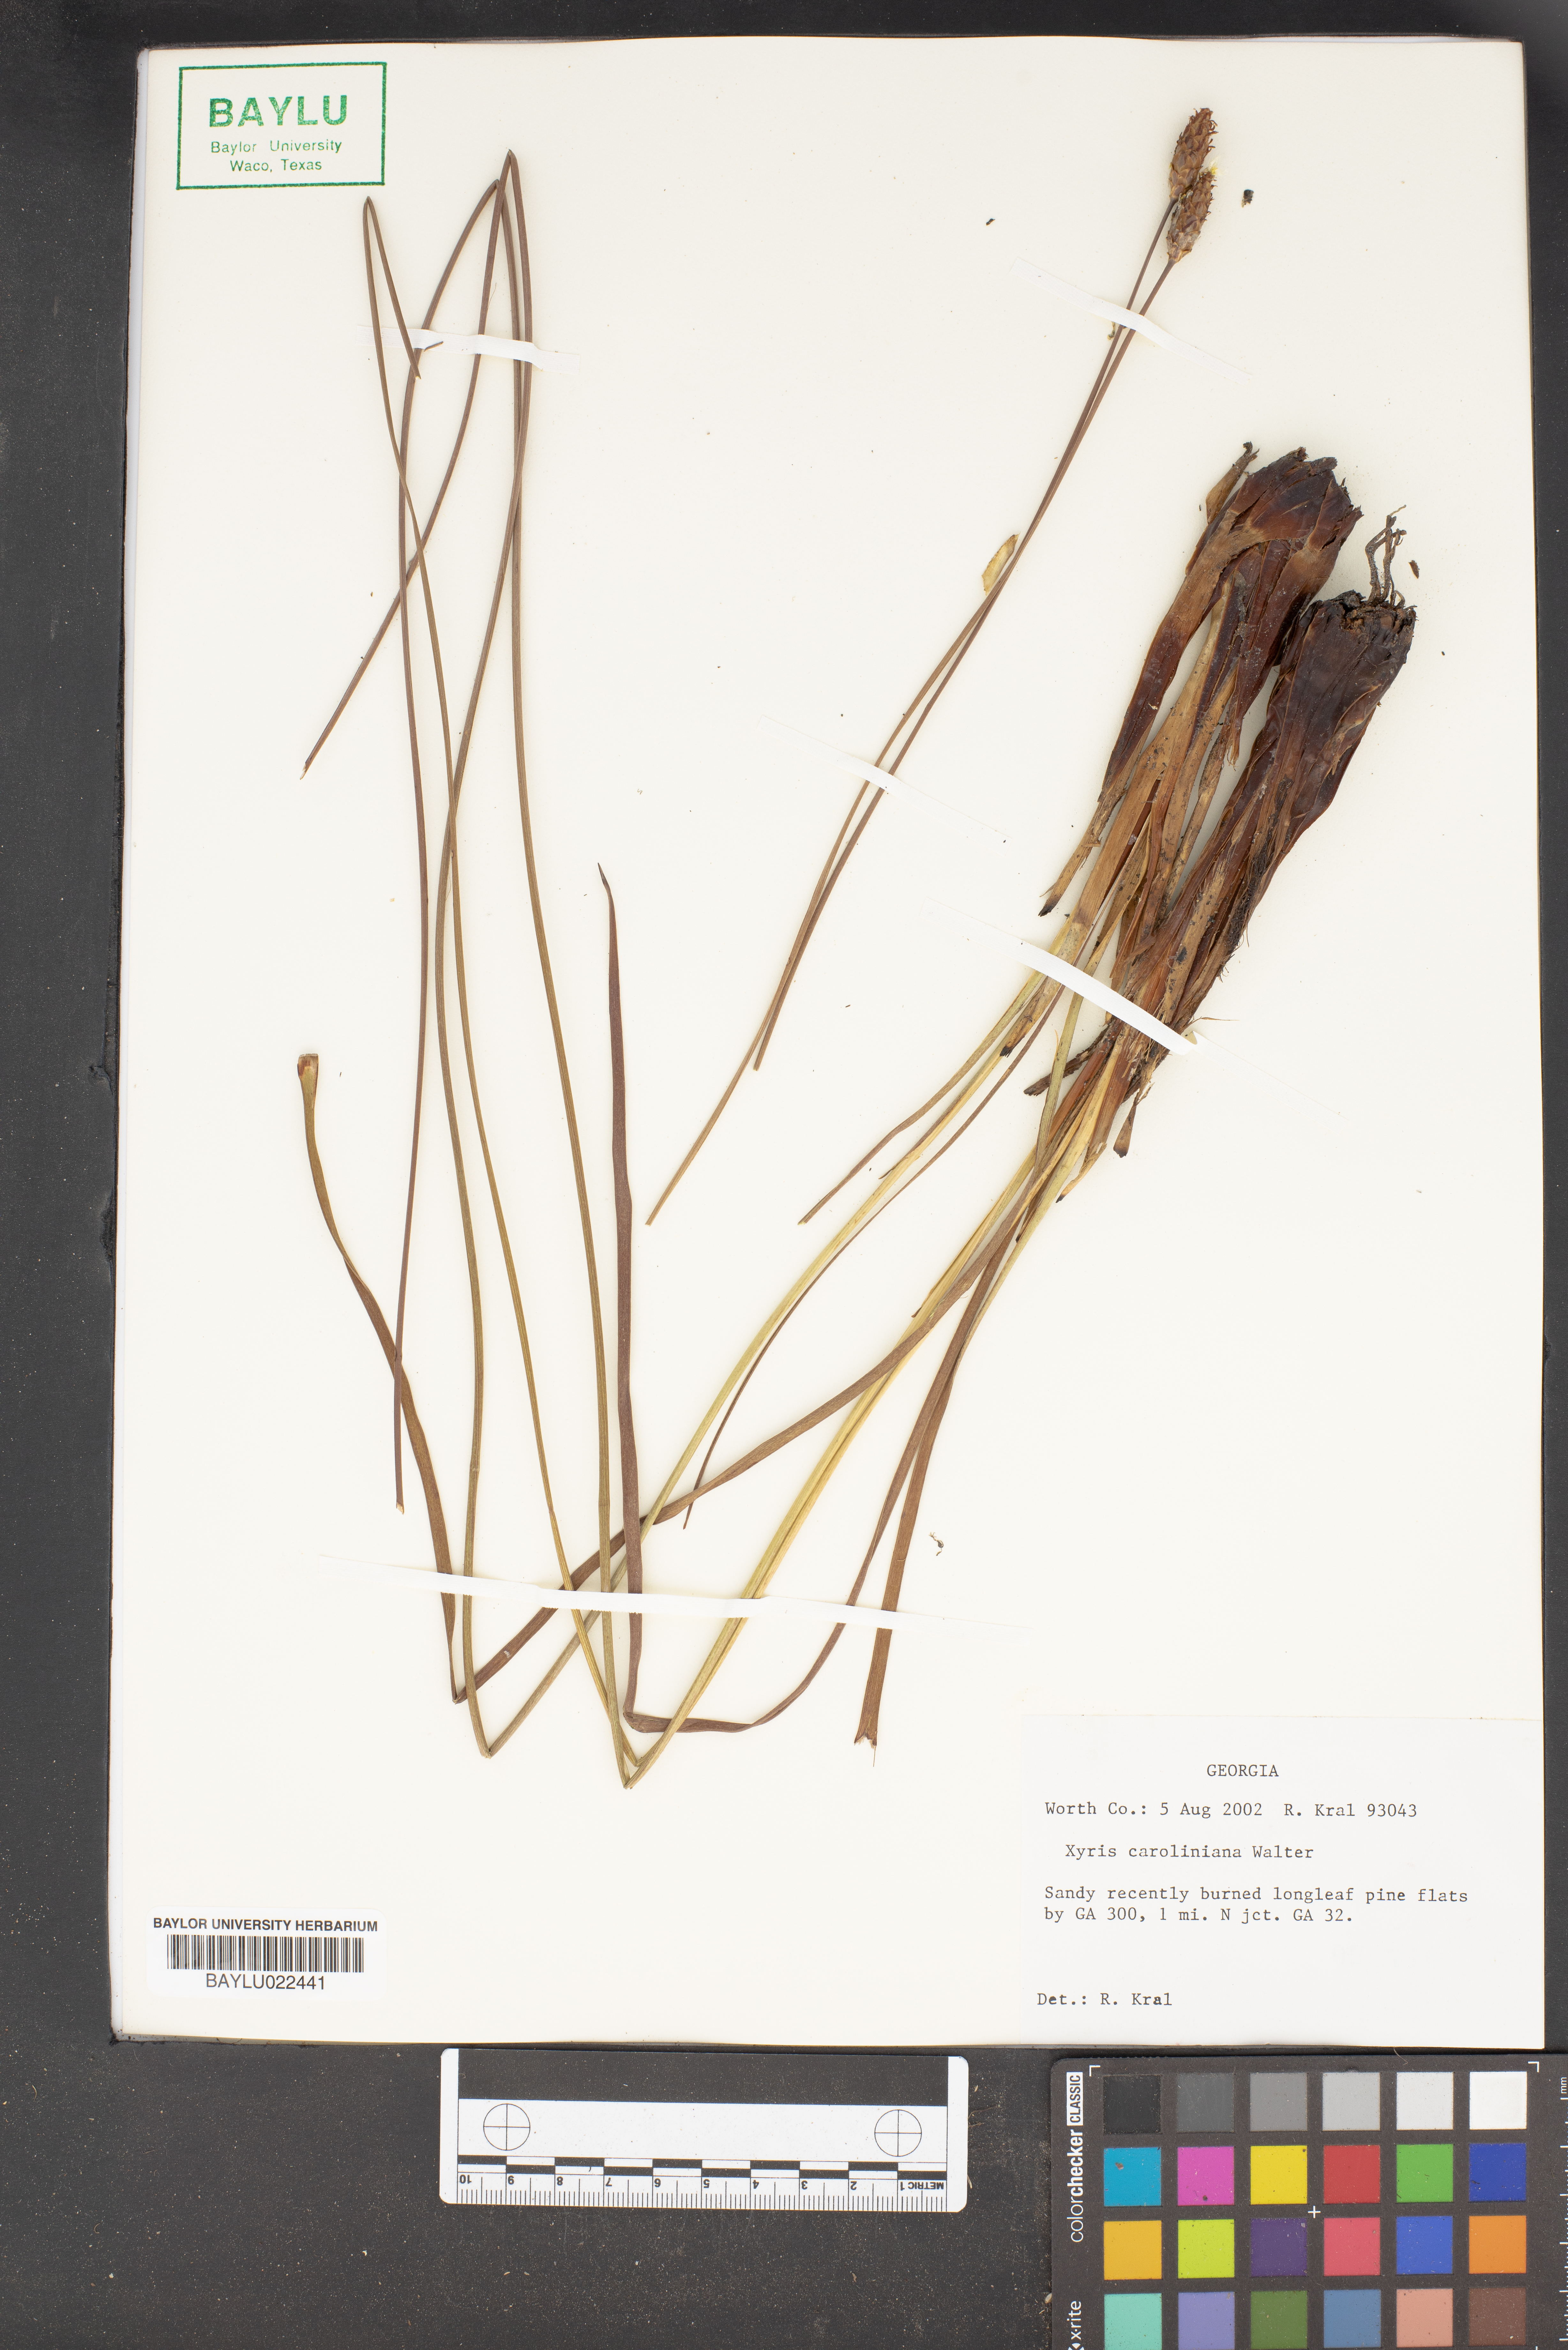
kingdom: Plantae
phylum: Tracheophyta
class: Liliopsida
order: Poales
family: Xyridaceae
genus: Xyris
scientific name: Xyris caroliniana
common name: Carolina yellow-eyed-grass
